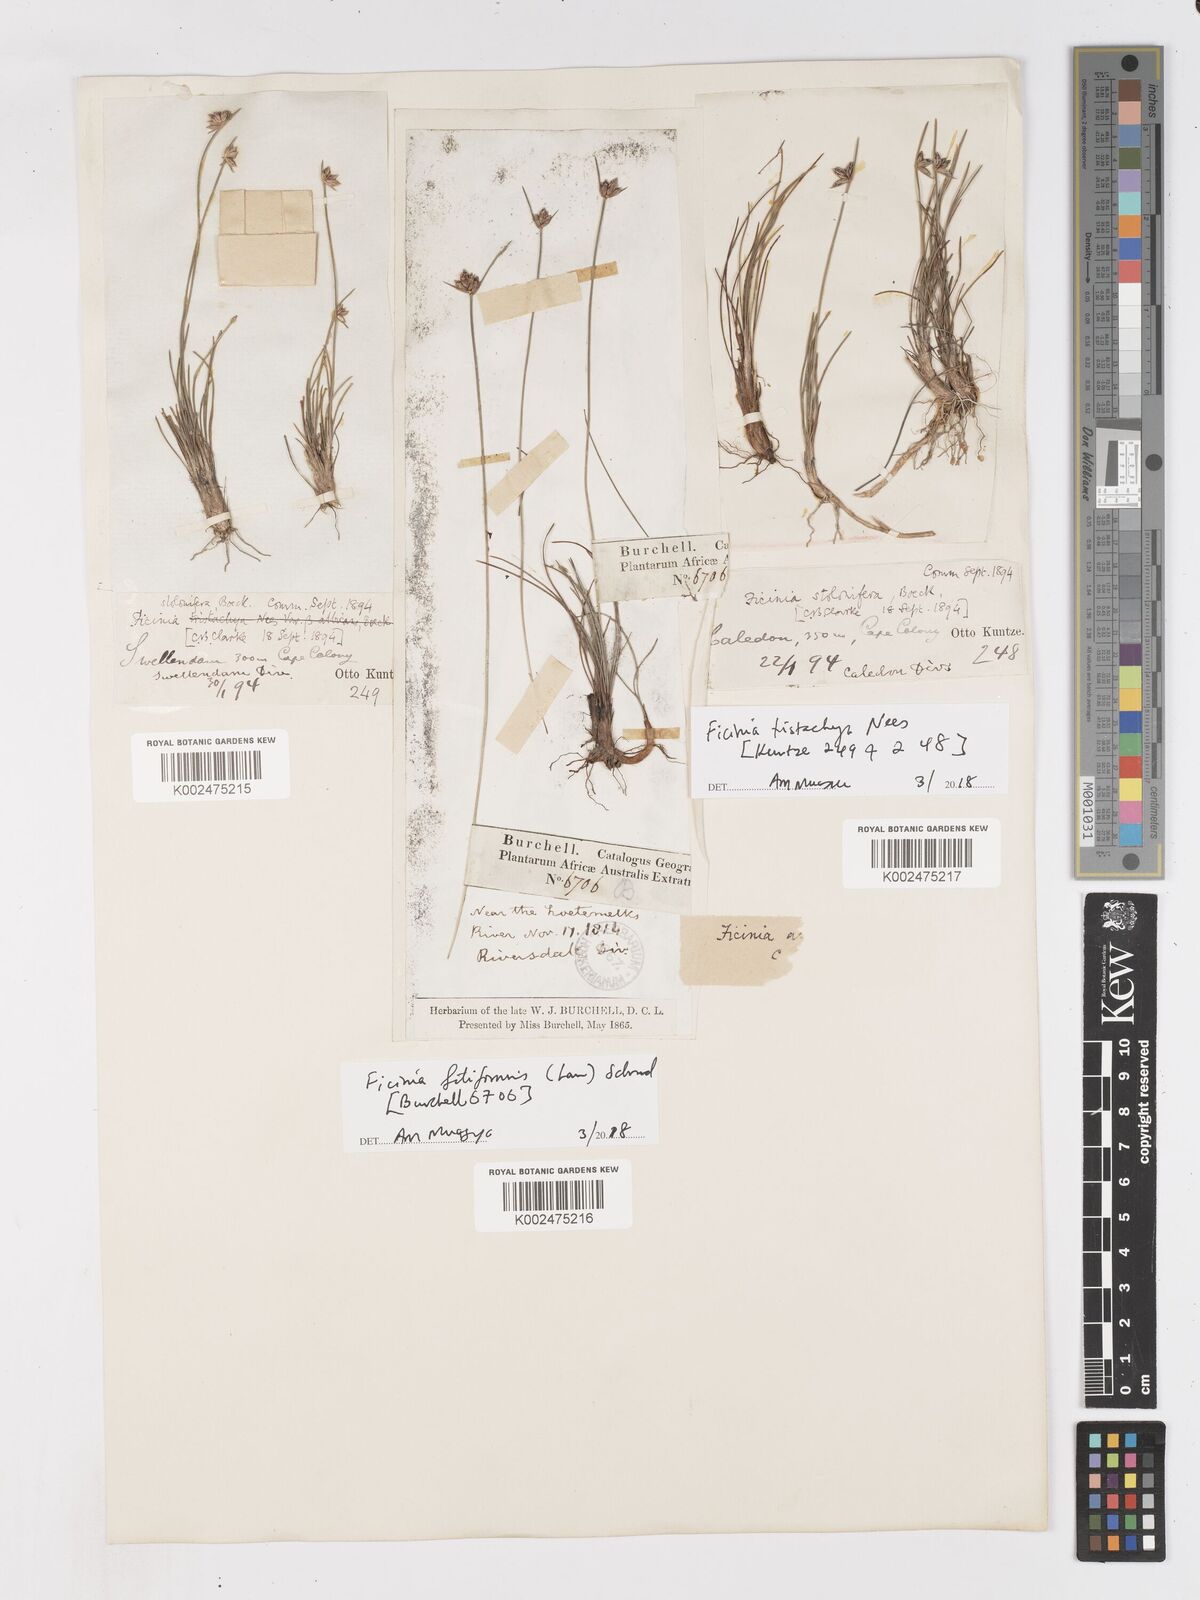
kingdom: Plantae
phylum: Tracheophyta
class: Liliopsida
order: Poales
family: Cyperaceae
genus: Ficinia
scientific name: Ficinia tristachya
